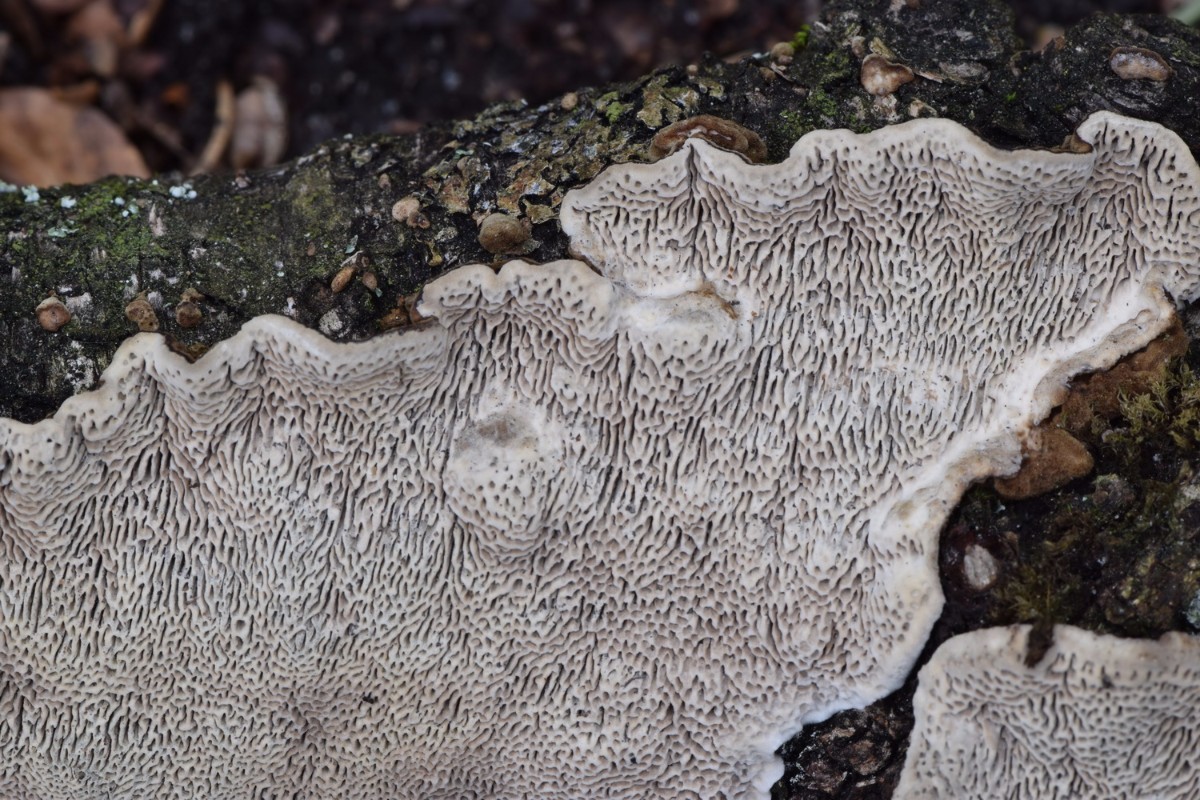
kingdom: Fungi
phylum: Basidiomycota
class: Agaricomycetes
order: Polyporales
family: Polyporaceae
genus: Podofomes
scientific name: Podofomes mollis
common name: blød begporesvamp
